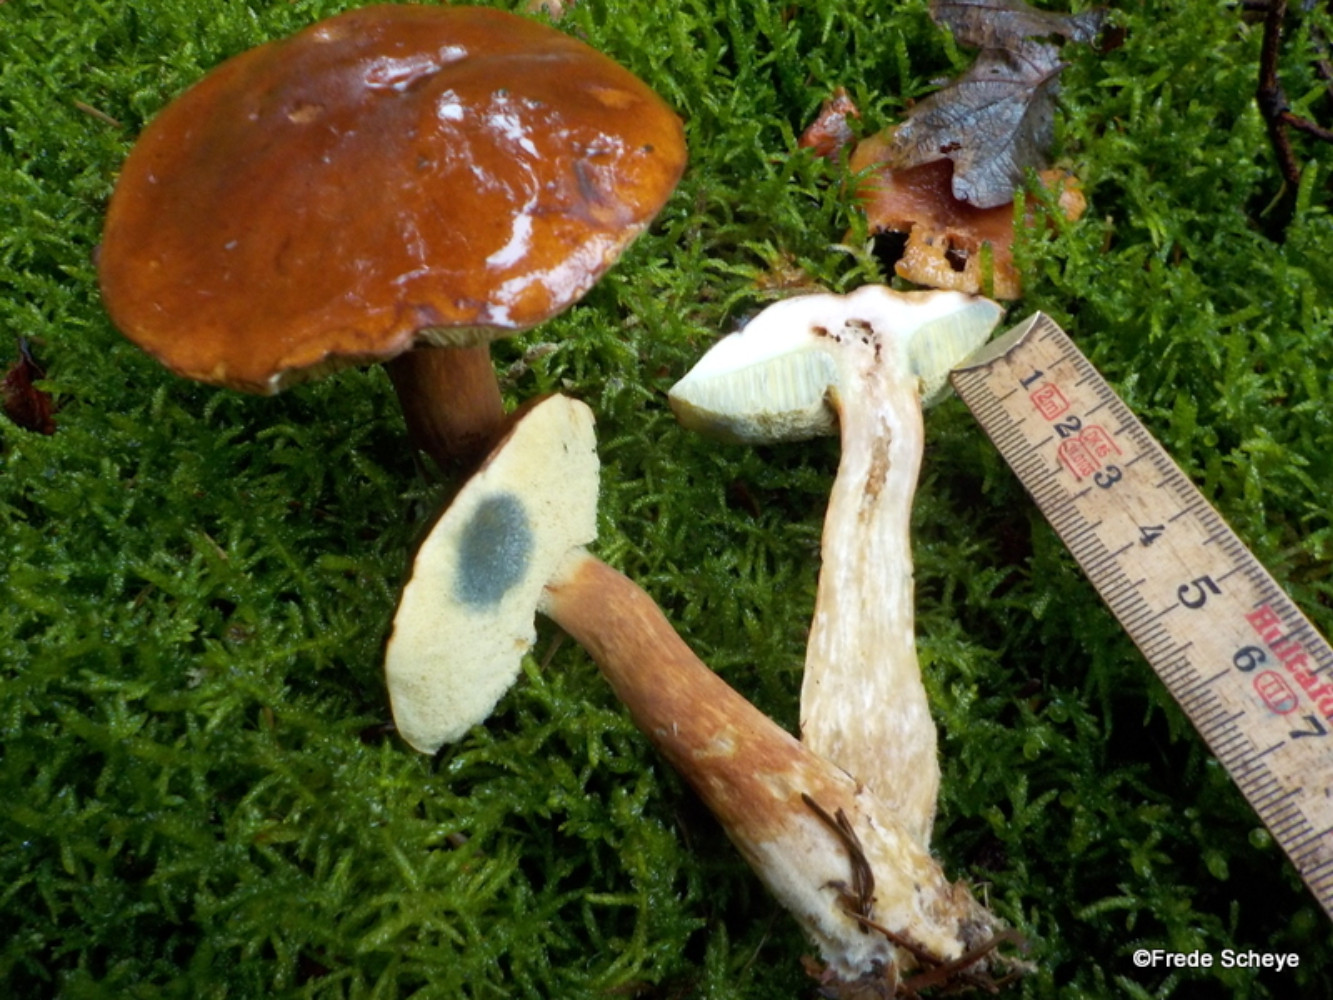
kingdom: Fungi
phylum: Basidiomycota
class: Agaricomycetes
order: Boletales
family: Boletaceae
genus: Imleria
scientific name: Imleria badia
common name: brunstokket rørhat
